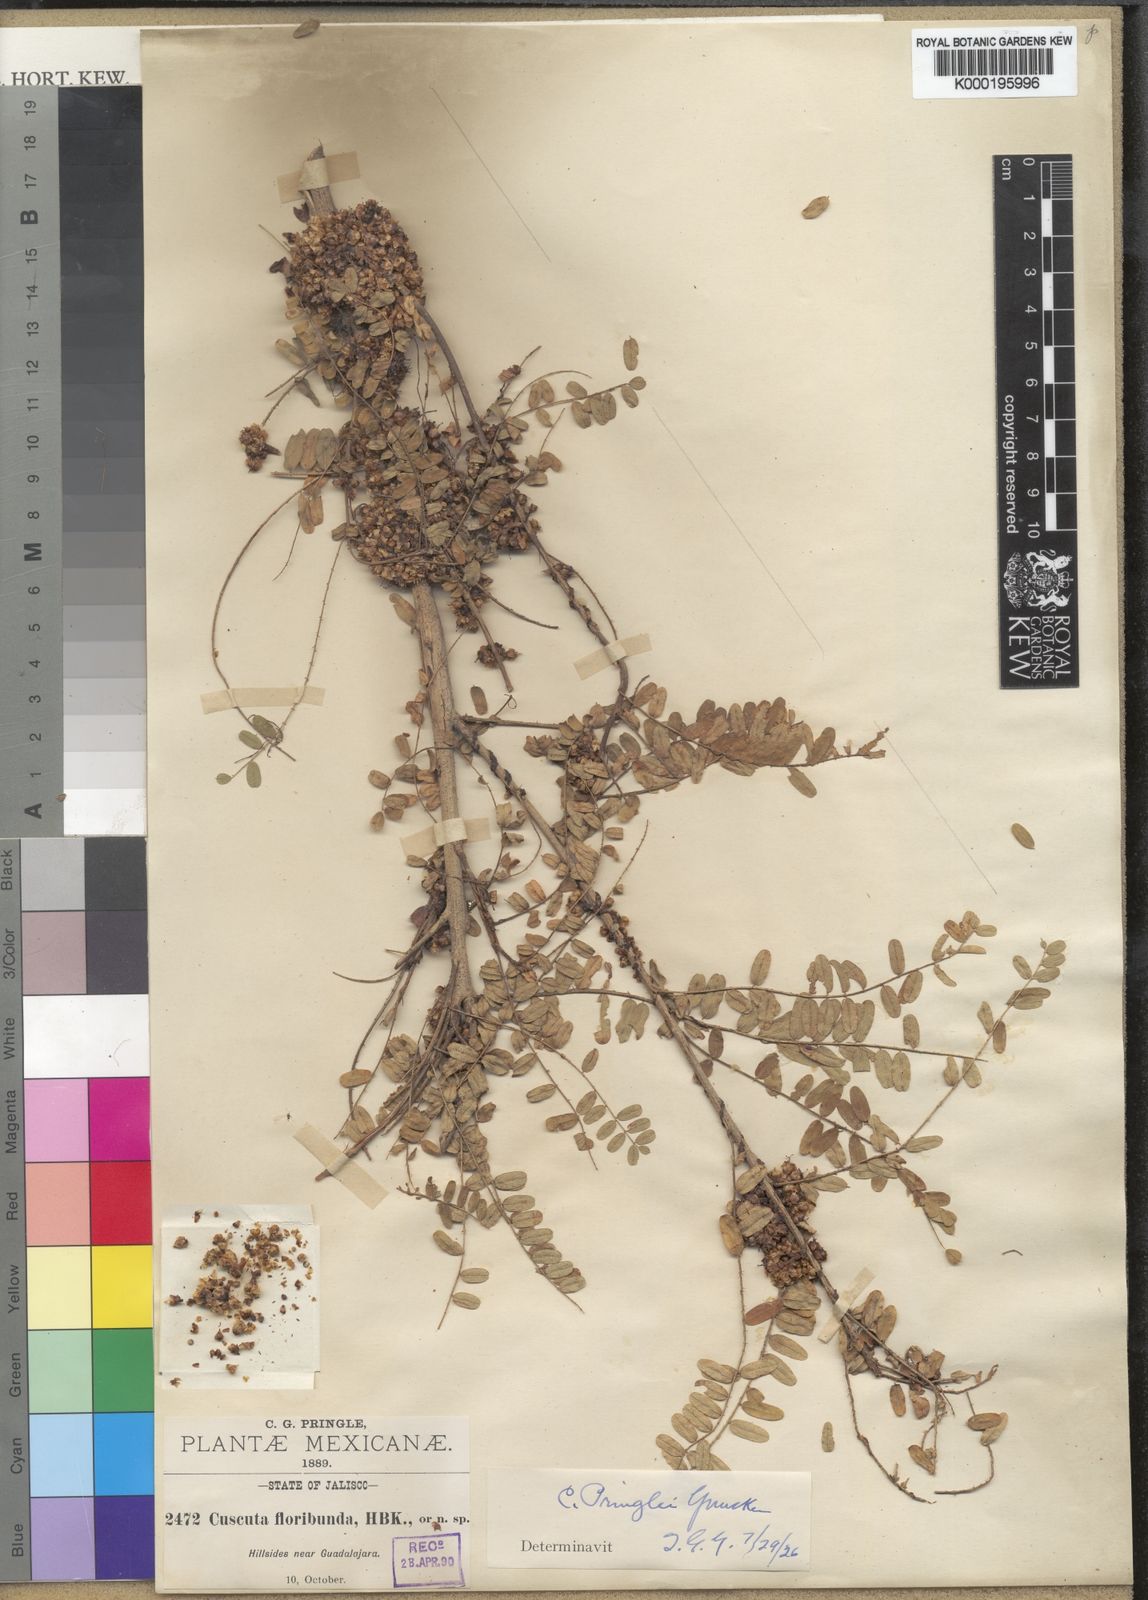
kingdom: Plantae
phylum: Tracheophyta
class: Magnoliopsida
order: Solanales
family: Convolvulaceae
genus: Cuscuta
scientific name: Cuscuta strobilacea
